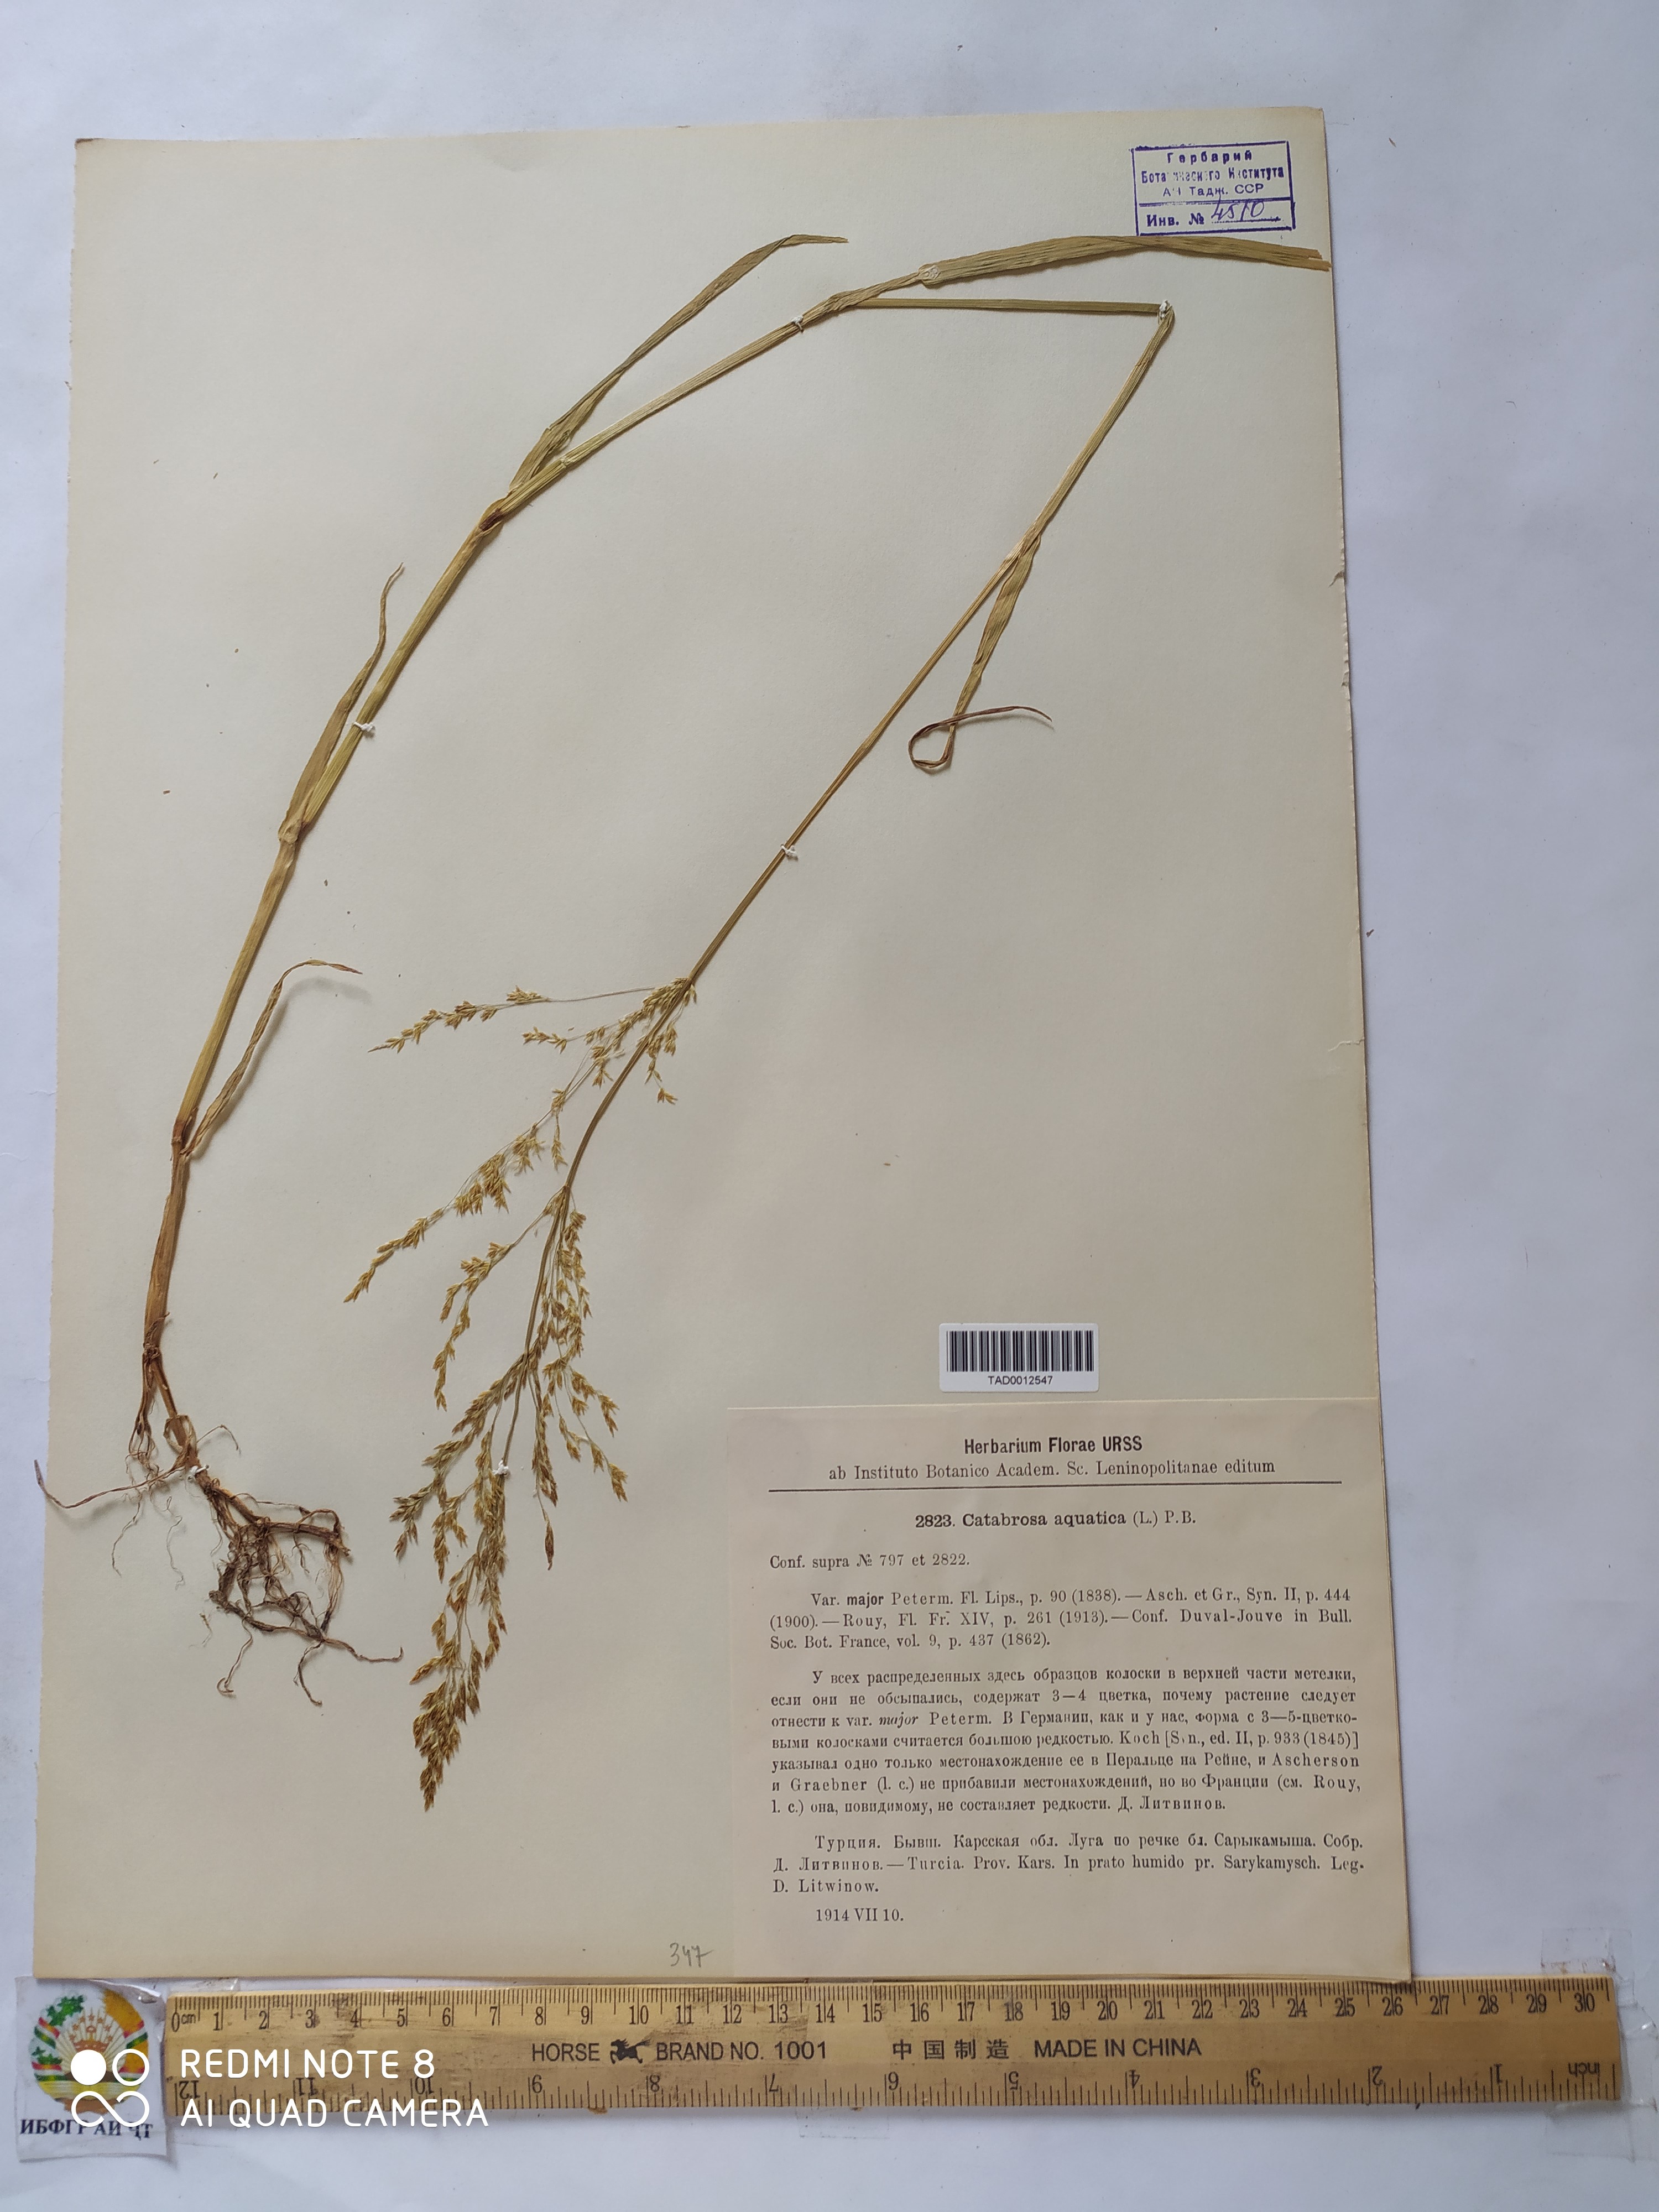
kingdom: Plantae
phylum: Tracheophyta
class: Liliopsida
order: Poales
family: Poaceae
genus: Catabrosa
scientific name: Catabrosa aquatica
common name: Whorl-grass
